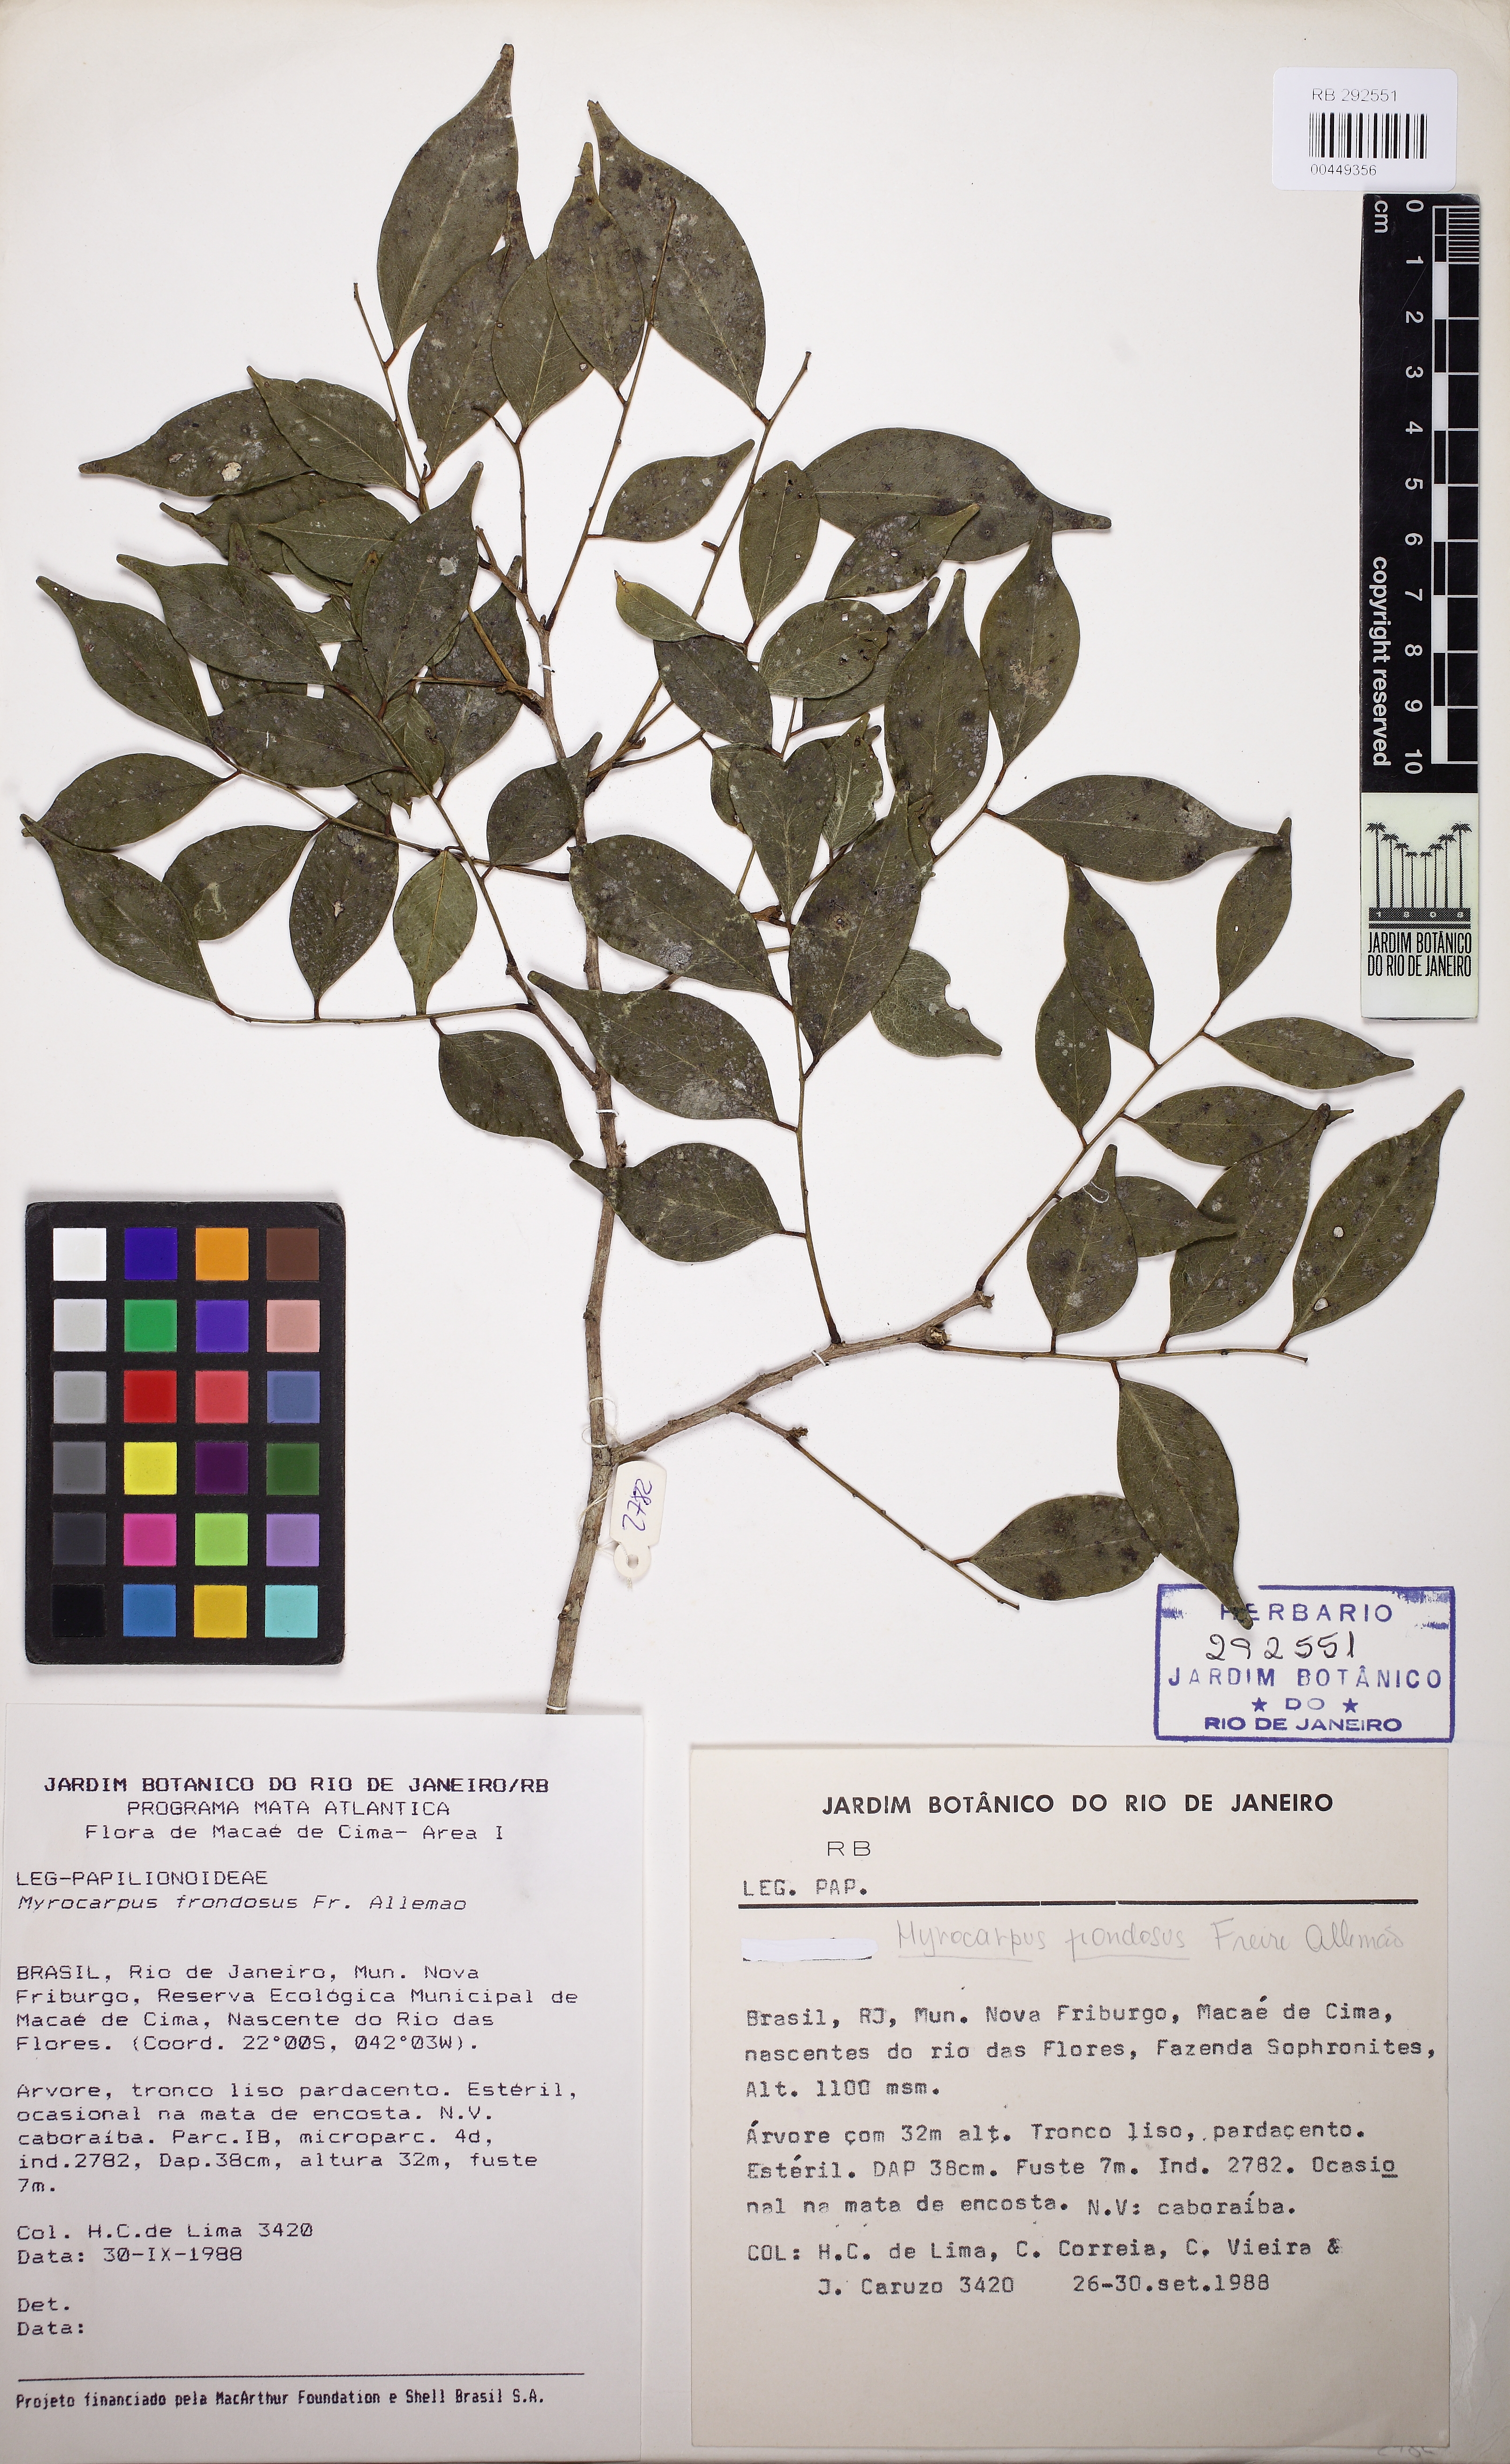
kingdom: Plantae
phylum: Tracheophyta
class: Magnoliopsida
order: Fabales
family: Fabaceae
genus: Myrocarpus
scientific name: Myrocarpus frondosus
